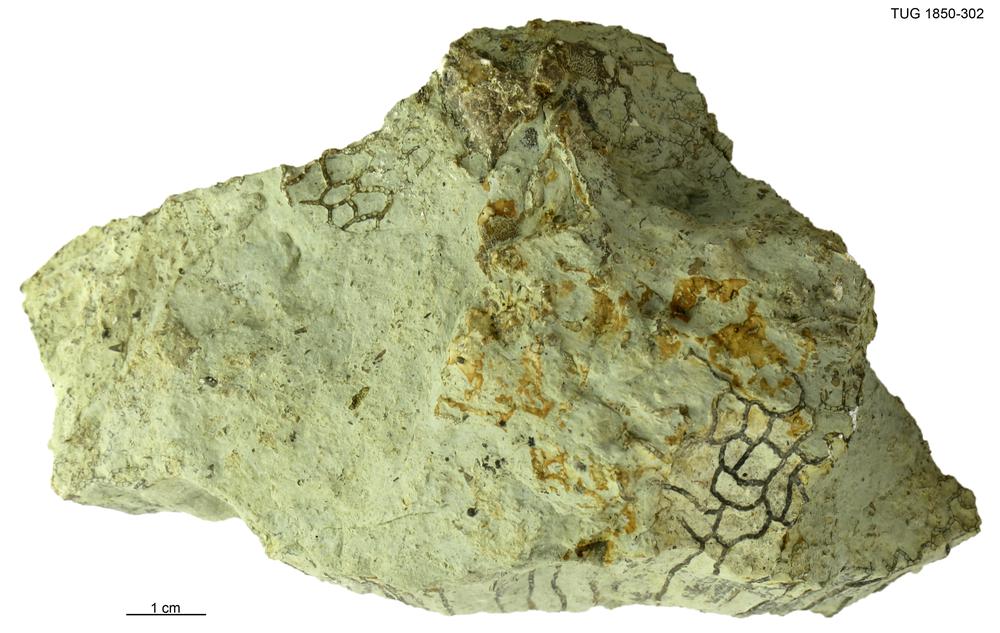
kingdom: Animalia
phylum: Cnidaria
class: Anthozoa
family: Halysitidae
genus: Halysites
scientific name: Halysites
